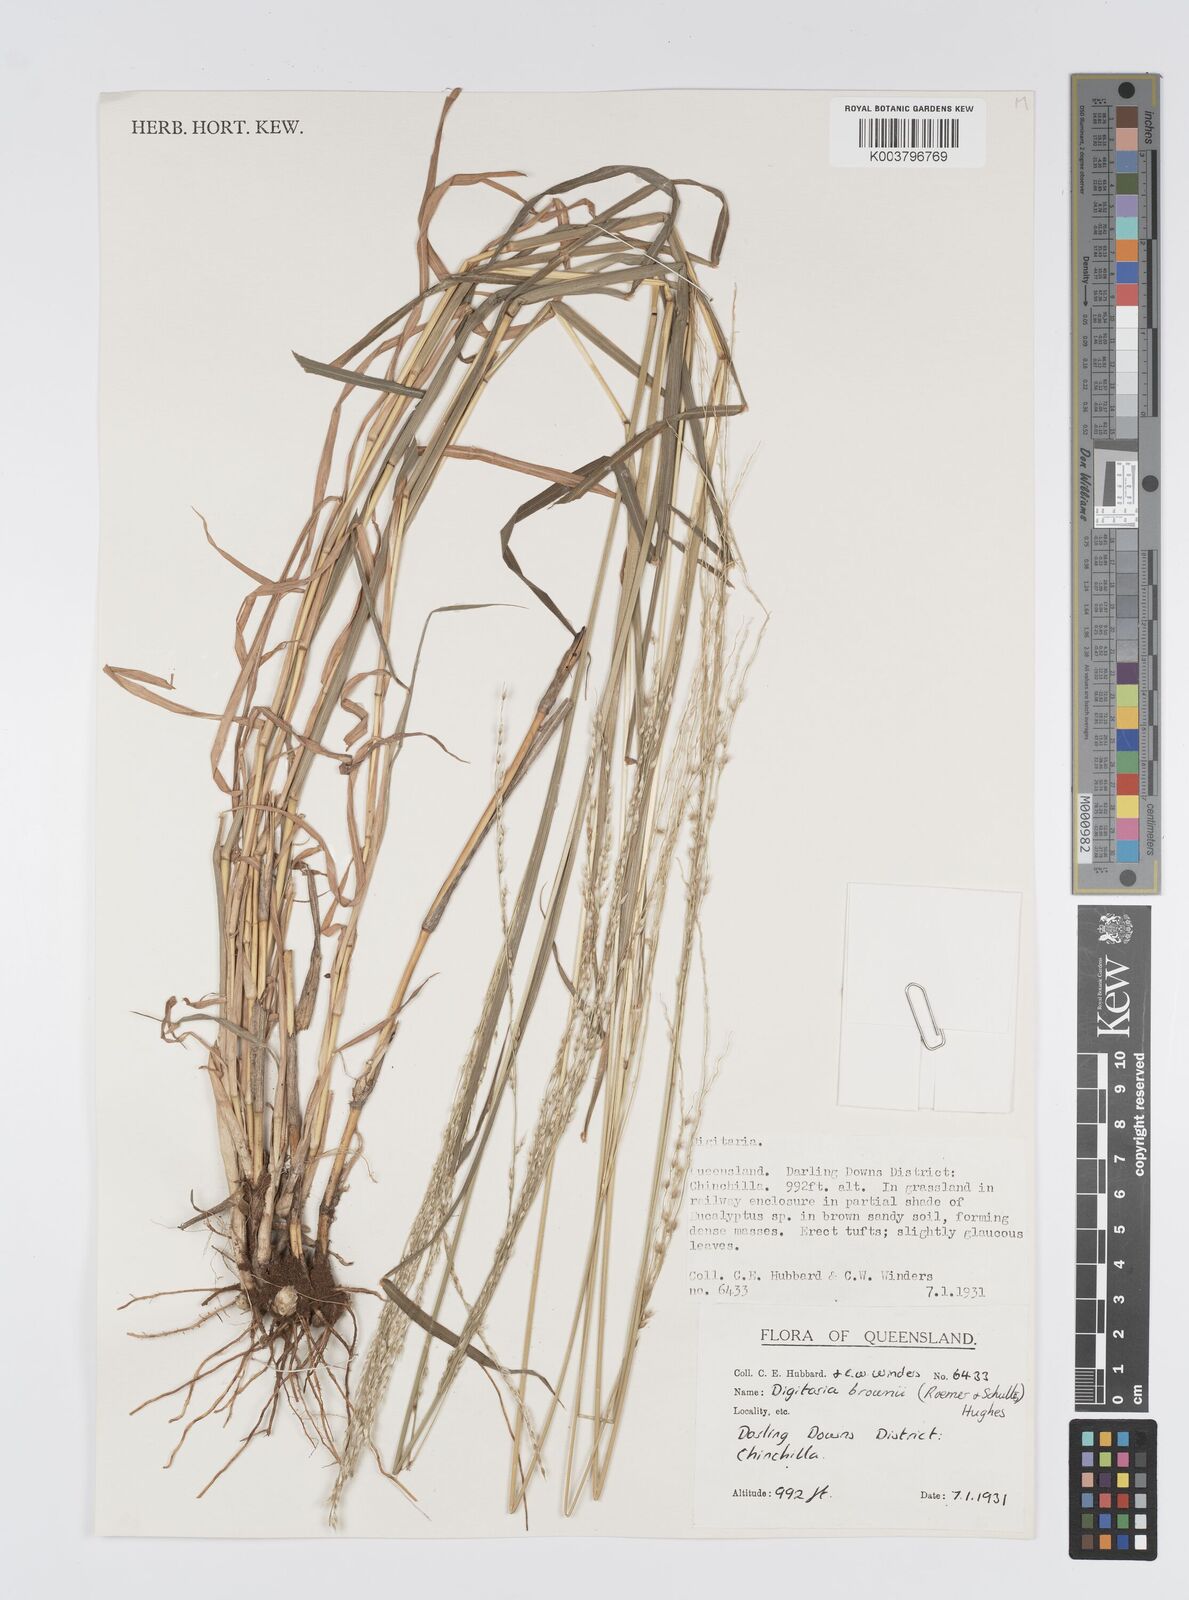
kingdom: Plantae
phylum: Tracheophyta
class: Liliopsida
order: Poales
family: Poaceae
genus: Digitaria
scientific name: Digitaria brownii
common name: Cotton grass
